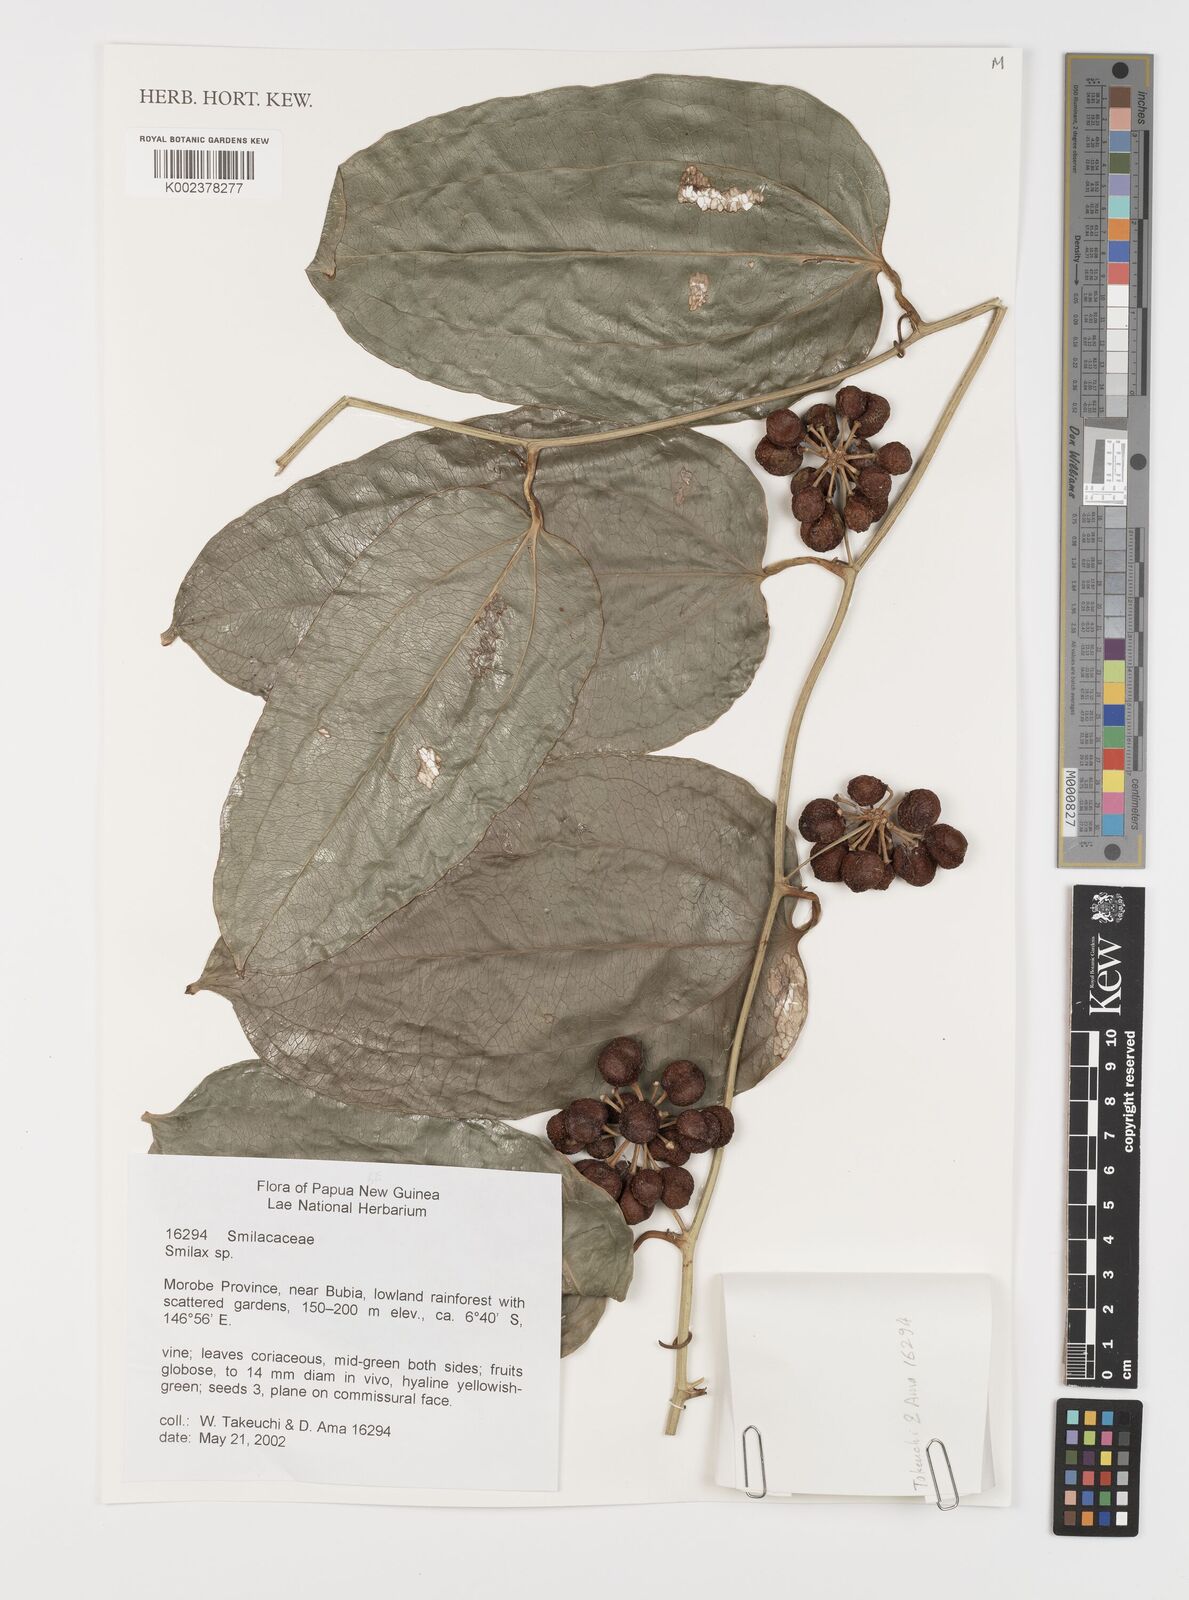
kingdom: Plantae
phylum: Tracheophyta
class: Liliopsida
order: Liliales
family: Smilacaceae
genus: Smilax
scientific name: Smilax
